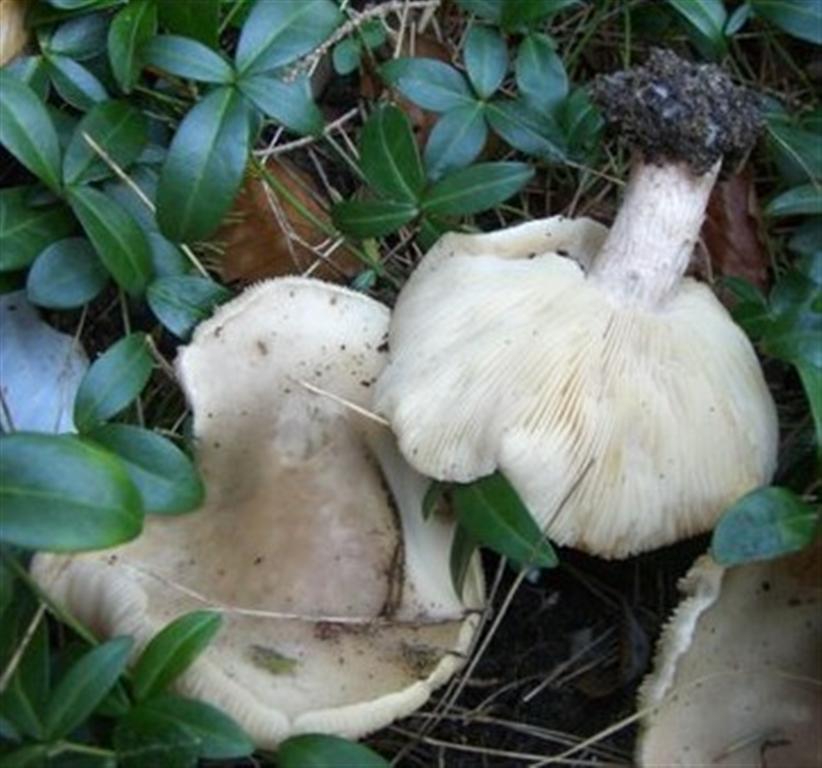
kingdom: Fungi
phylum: Basidiomycota
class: Agaricomycetes
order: Agaricales
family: Tricholomataceae
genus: Lepista
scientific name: Lepista personata
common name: bleg hekseringshat
